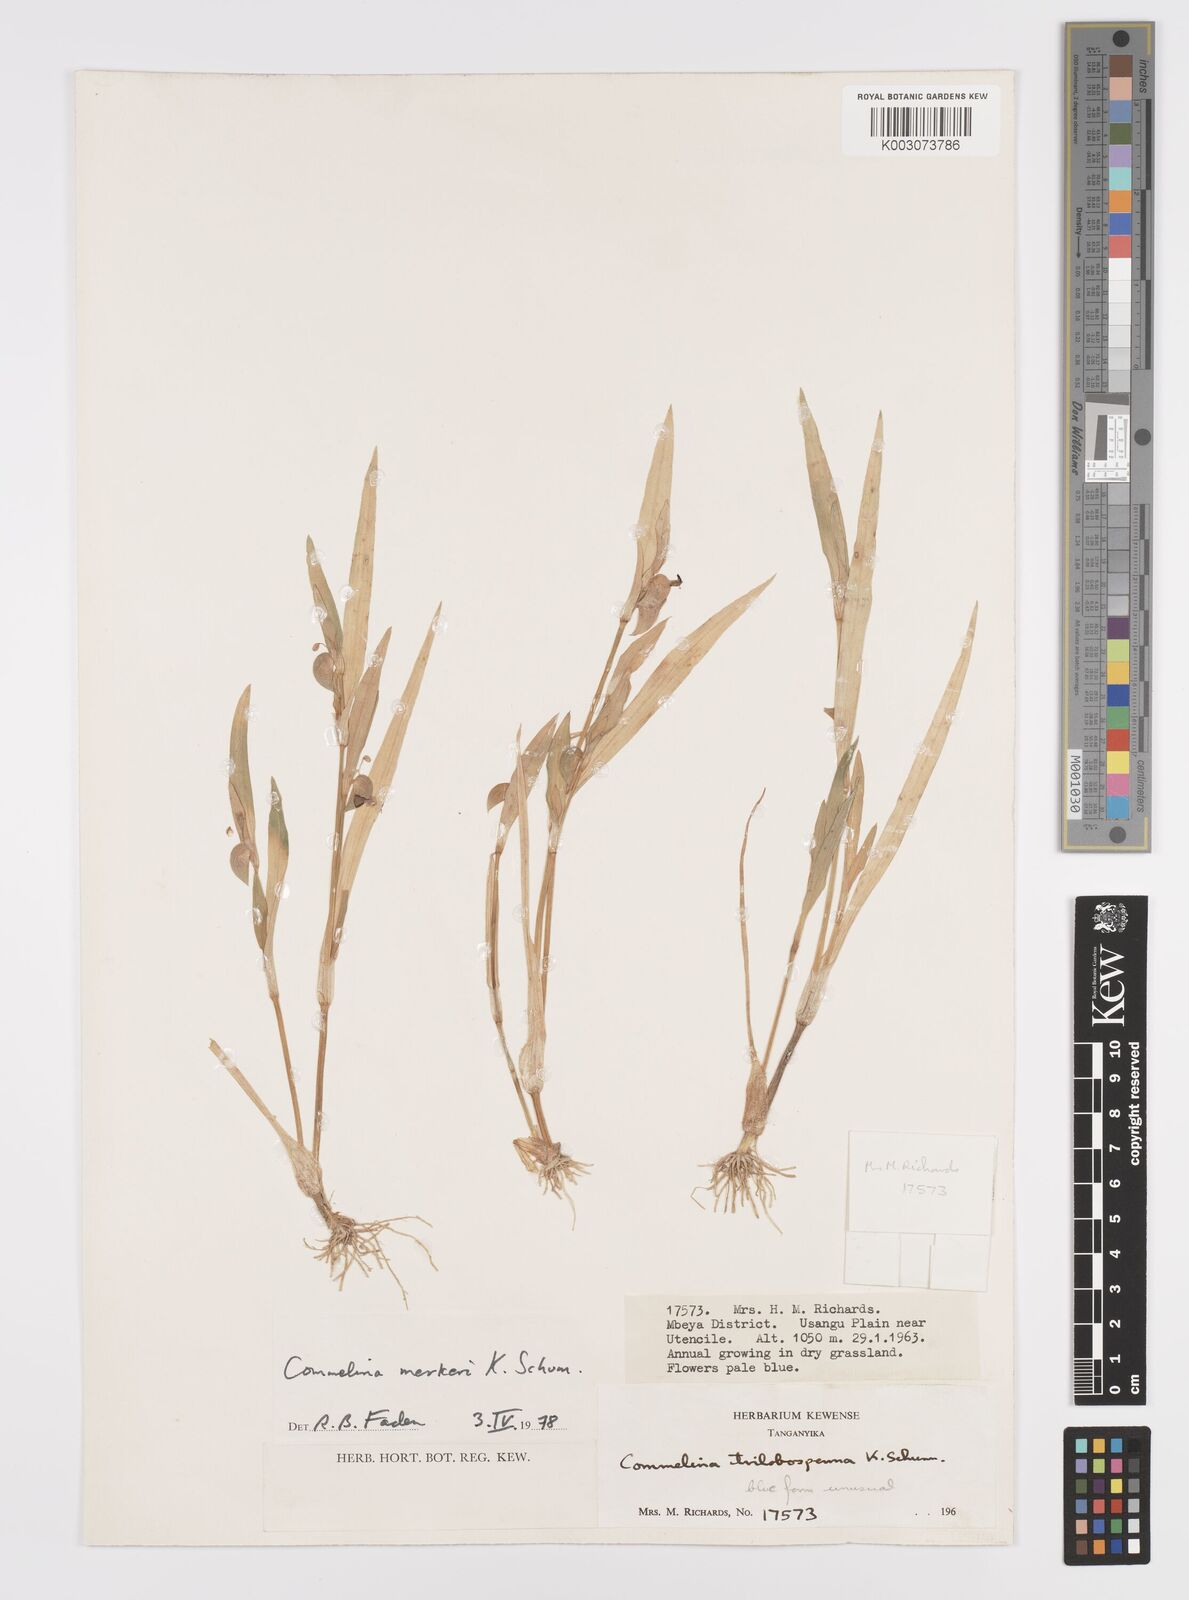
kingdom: Plantae
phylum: Tracheophyta
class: Liliopsida
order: Commelinales
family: Commelinaceae
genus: Commelina
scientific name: Commelina merkeri
